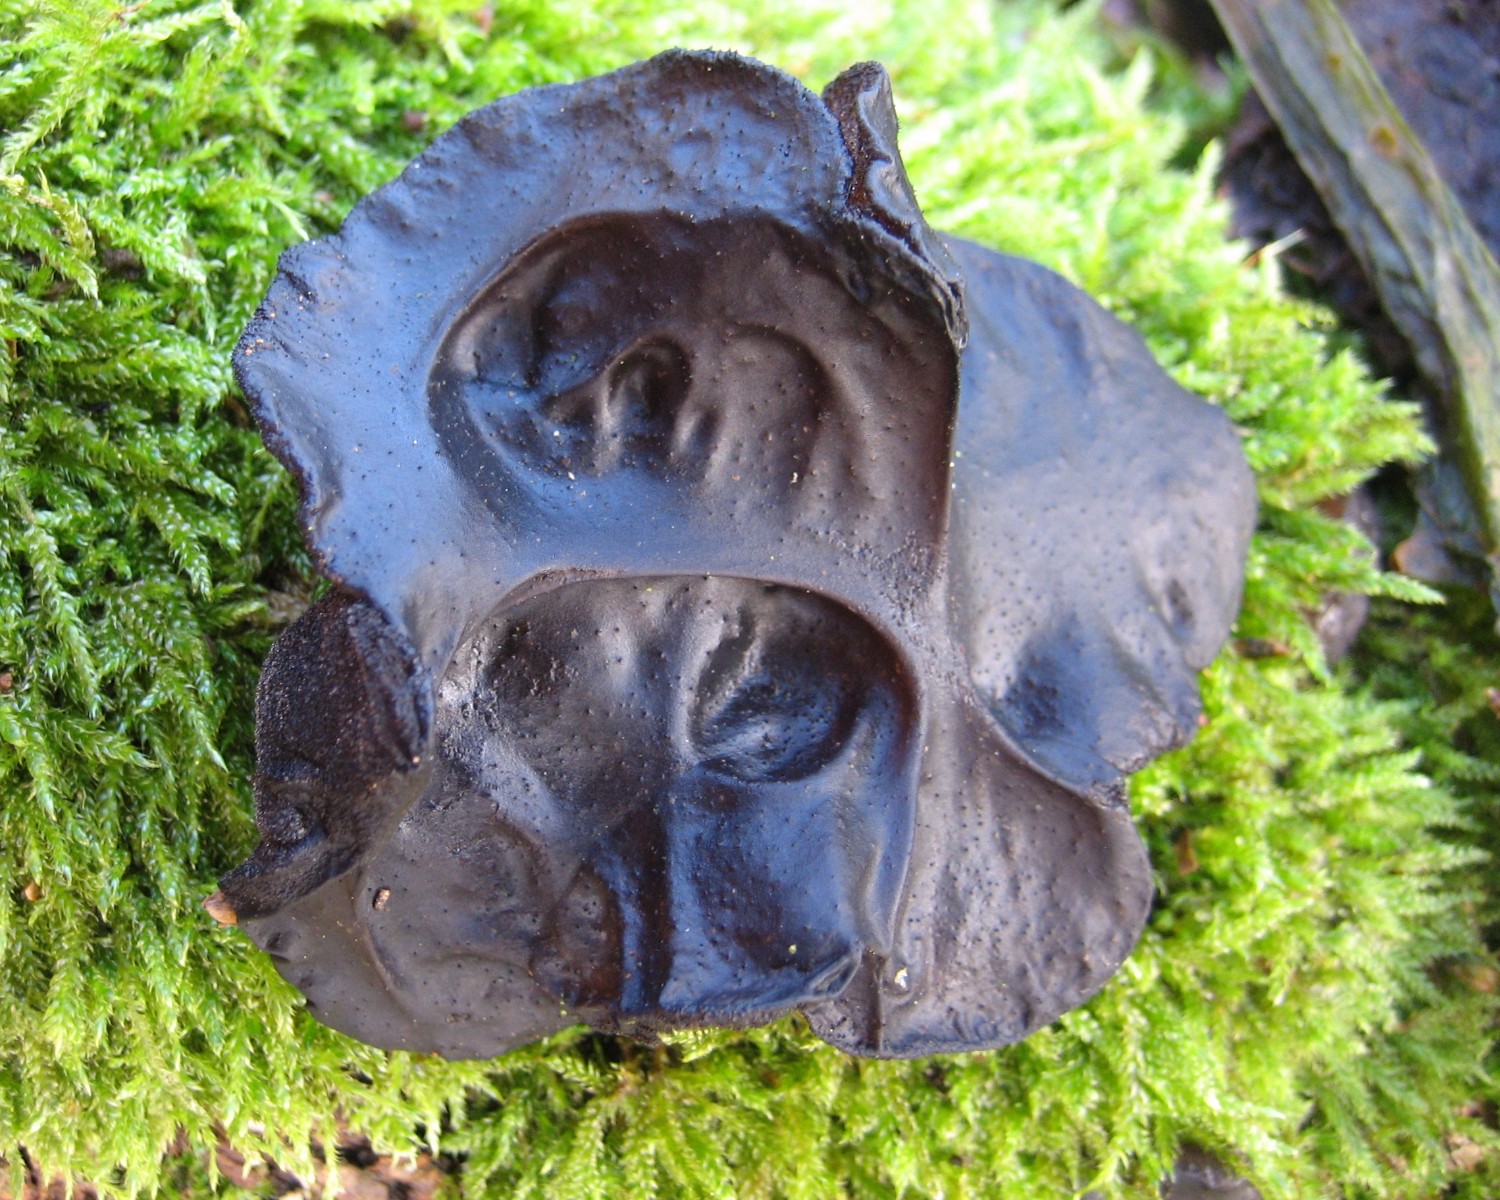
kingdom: Fungi
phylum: Basidiomycota
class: Agaricomycetes
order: Auriculariales
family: Auriculariaceae
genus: Exidia
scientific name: Exidia glandulosa
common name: ege-bævretop
